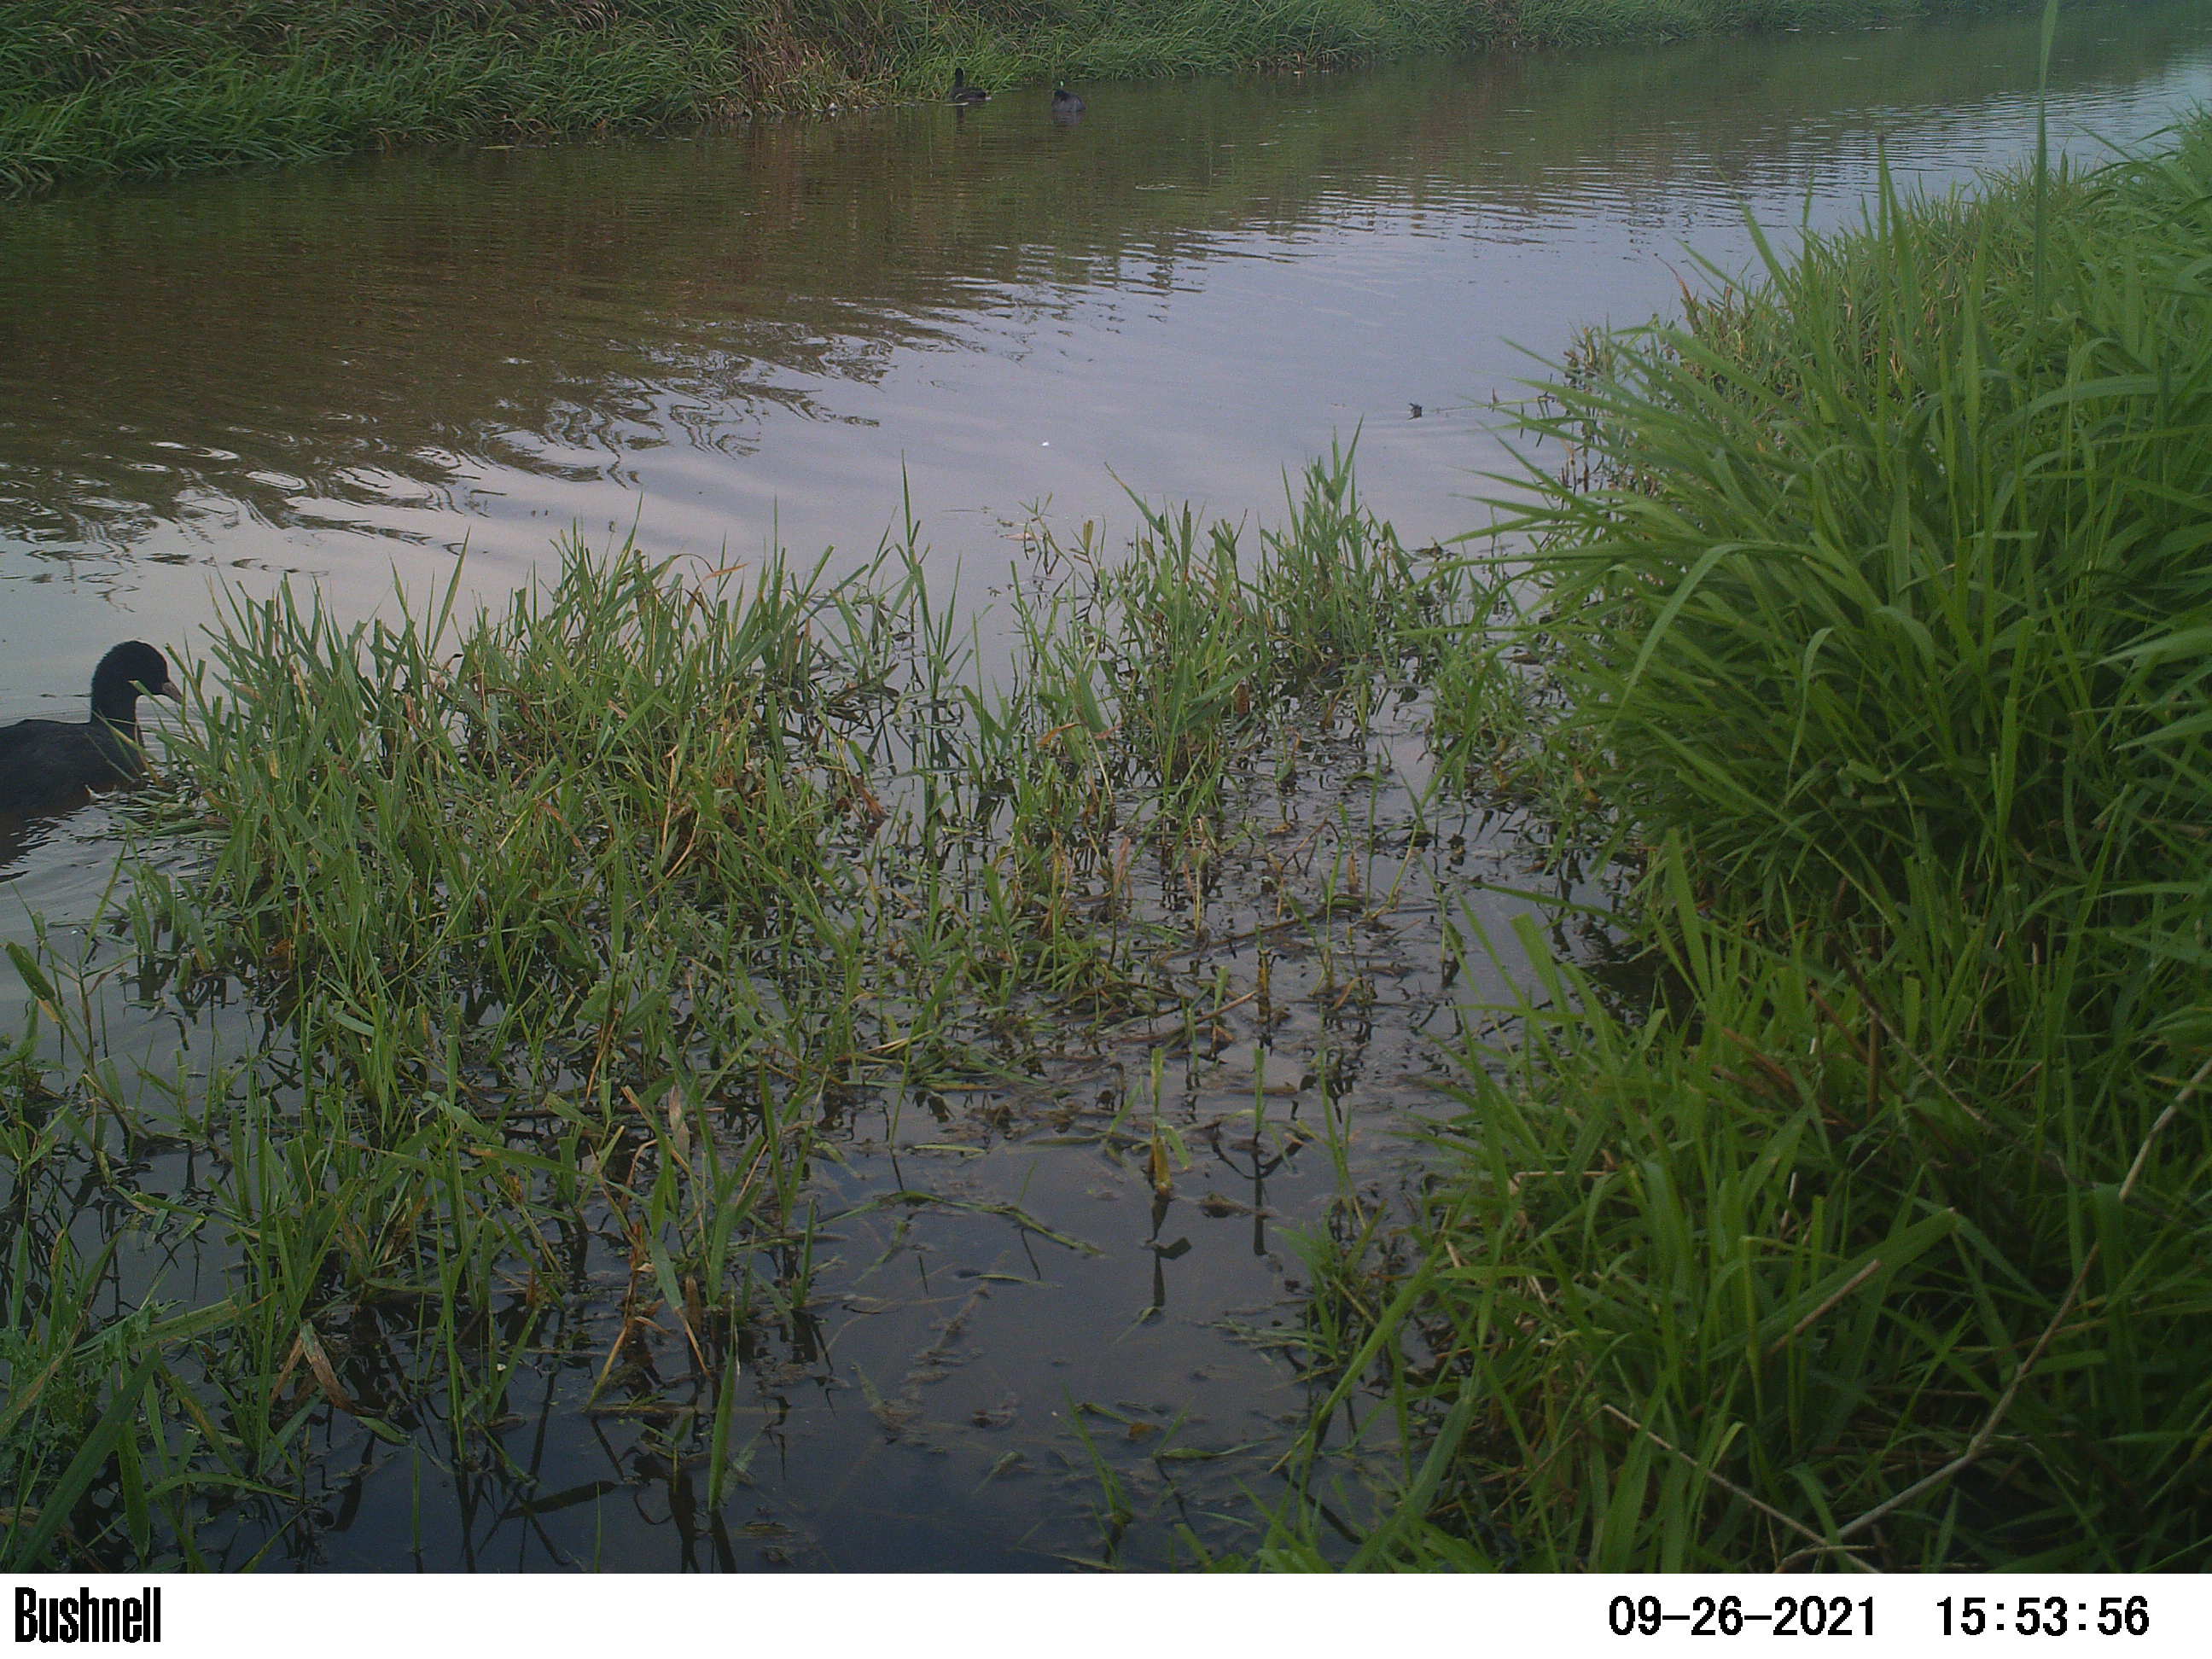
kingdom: Animalia
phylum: Chordata
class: Aves
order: Gruiformes
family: Rallidae
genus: Fulica
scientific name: Fulica atra
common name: Eurasian coot
